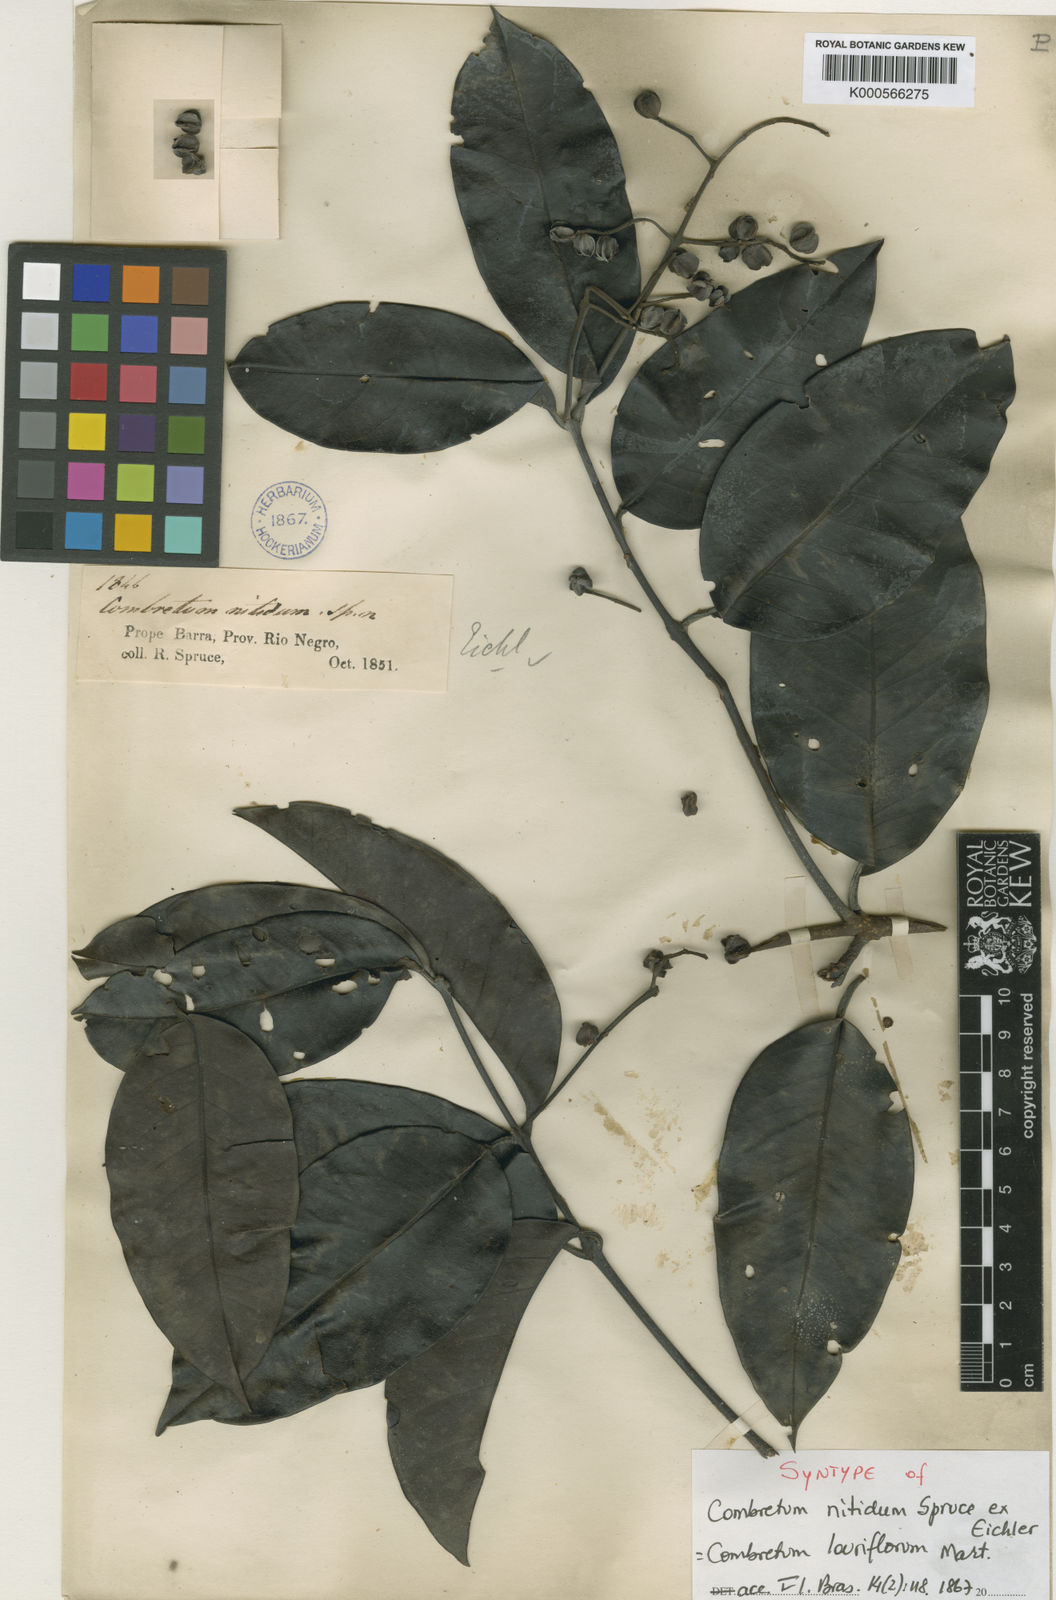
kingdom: Plantae
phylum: Tracheophyta
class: Magnoliopsida
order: Myrtales
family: Combretaceae
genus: Combretum
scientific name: Combretum laurifolium
